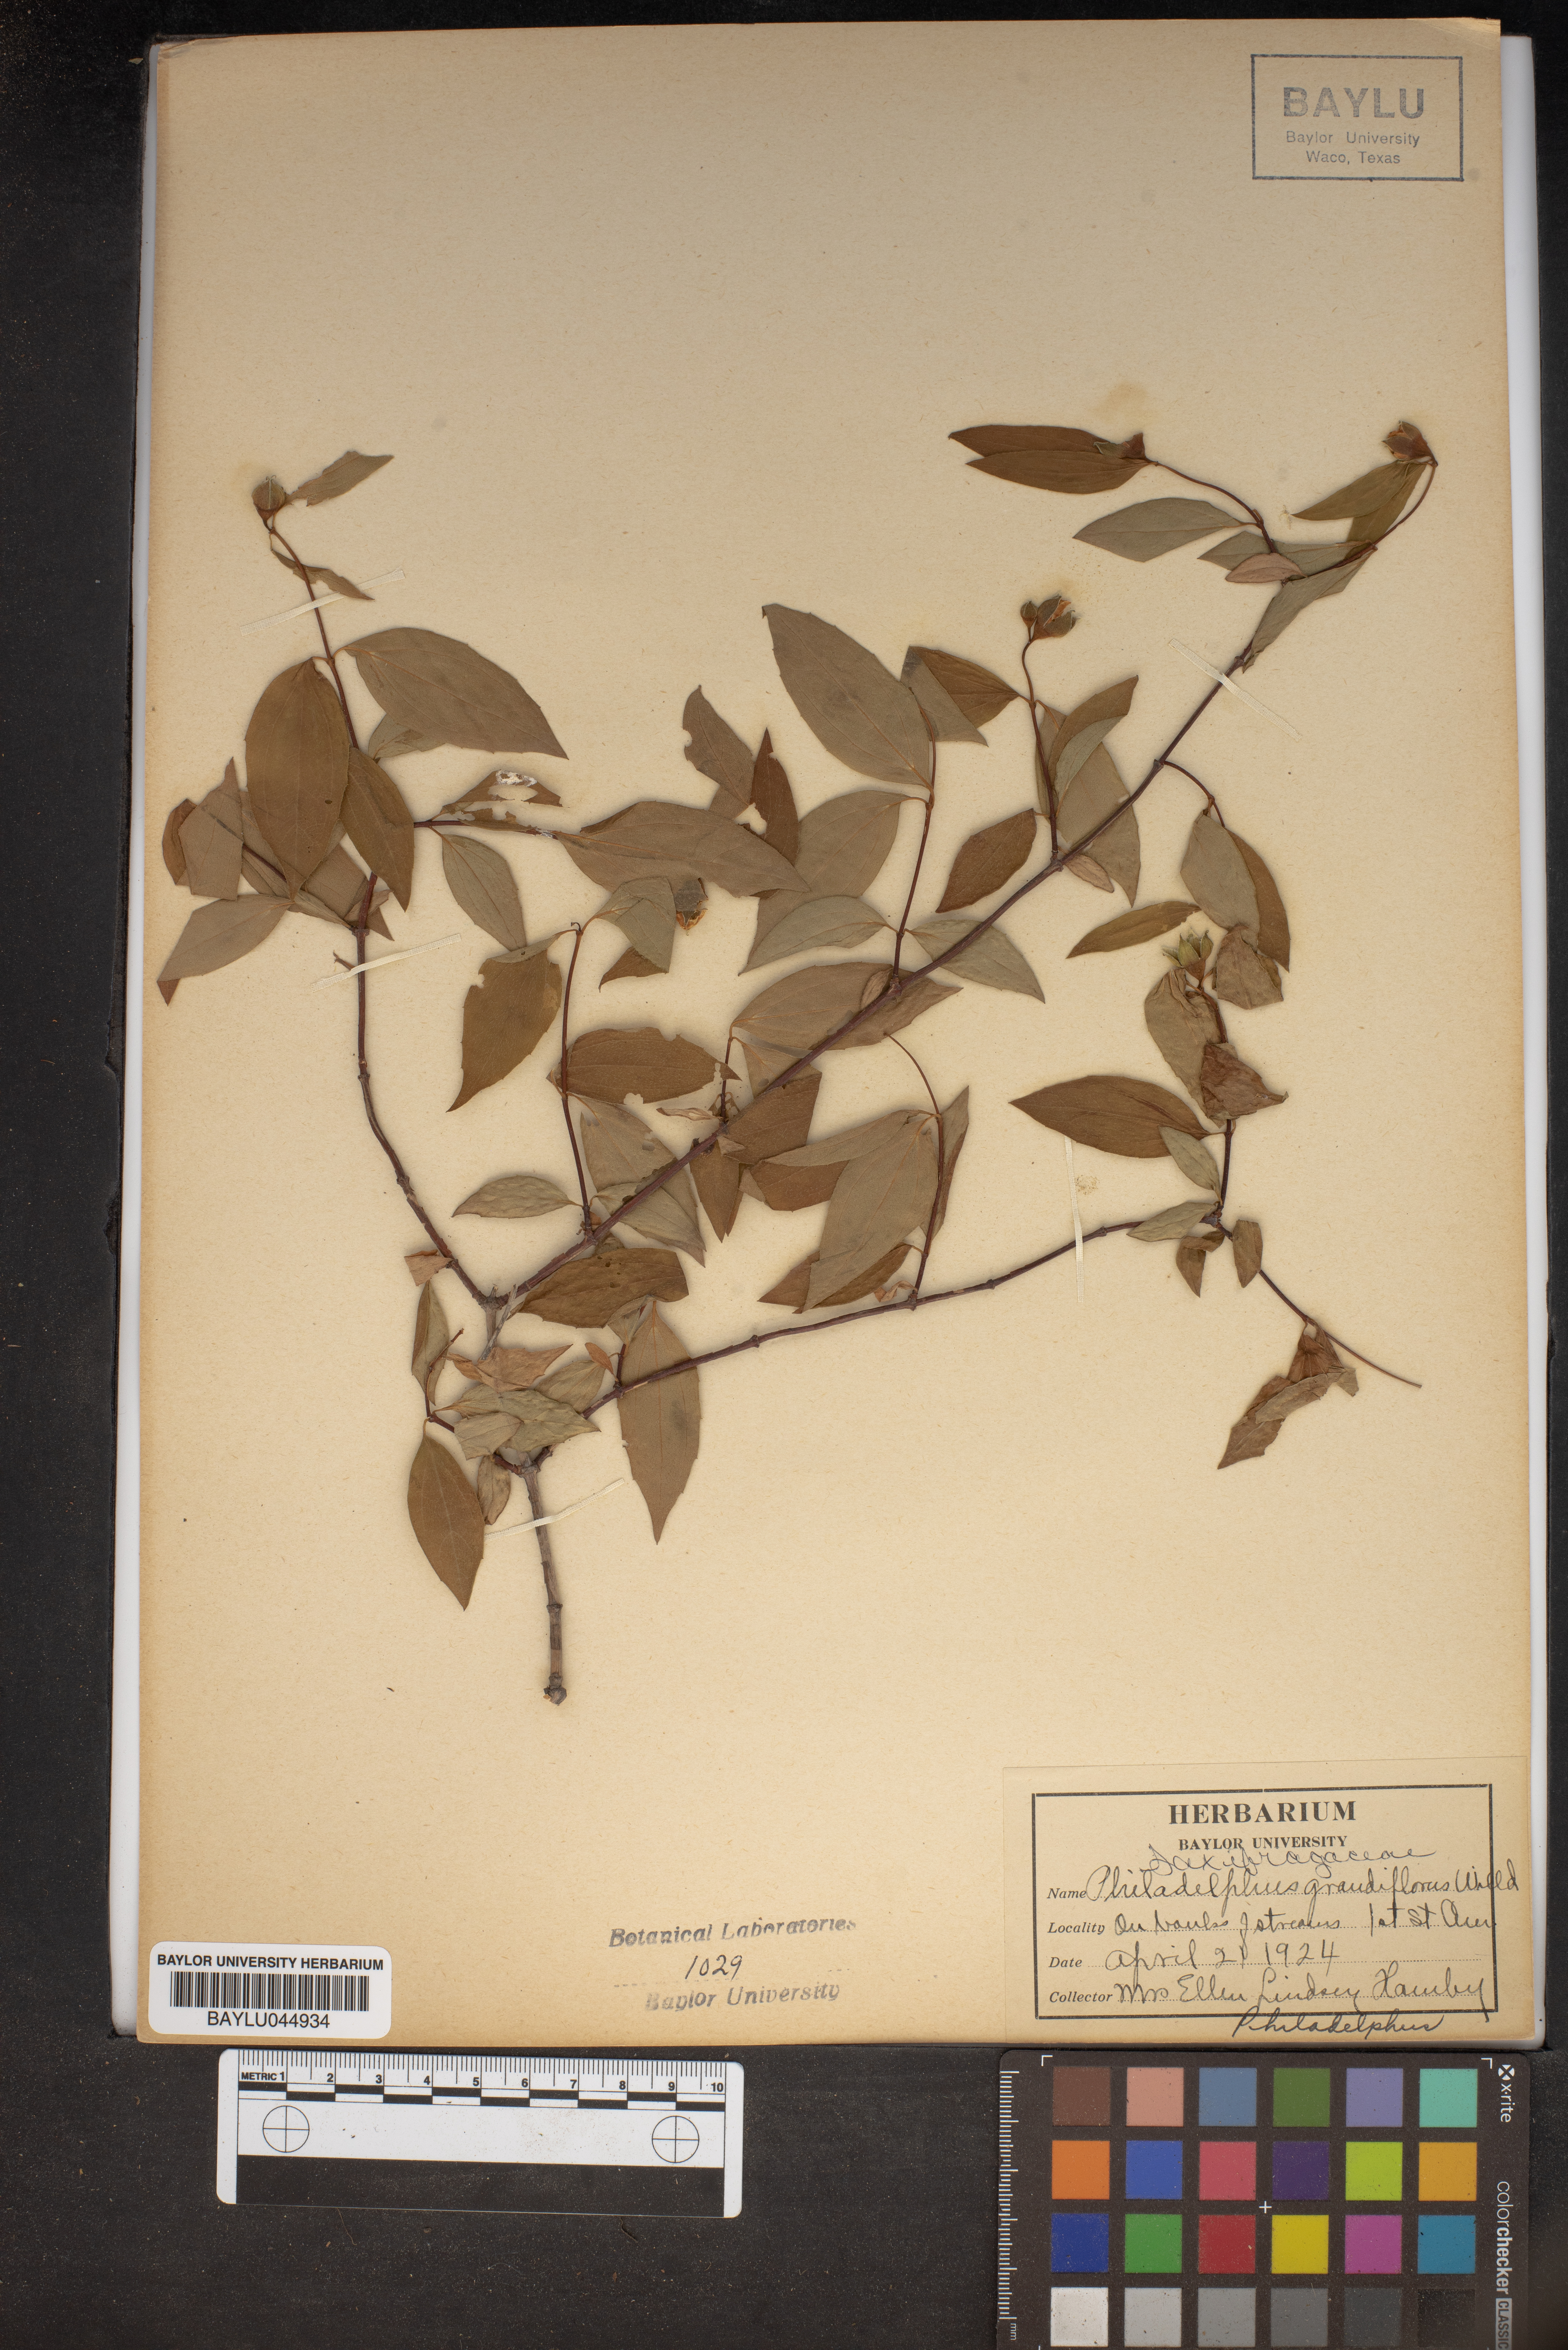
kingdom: Plantae
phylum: Tracheophyta
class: Magnoliopsida
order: Cornales
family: Hydrangeaceae
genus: Philadelphus
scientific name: Philadelphus inodorus
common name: Scentless mock-orange
